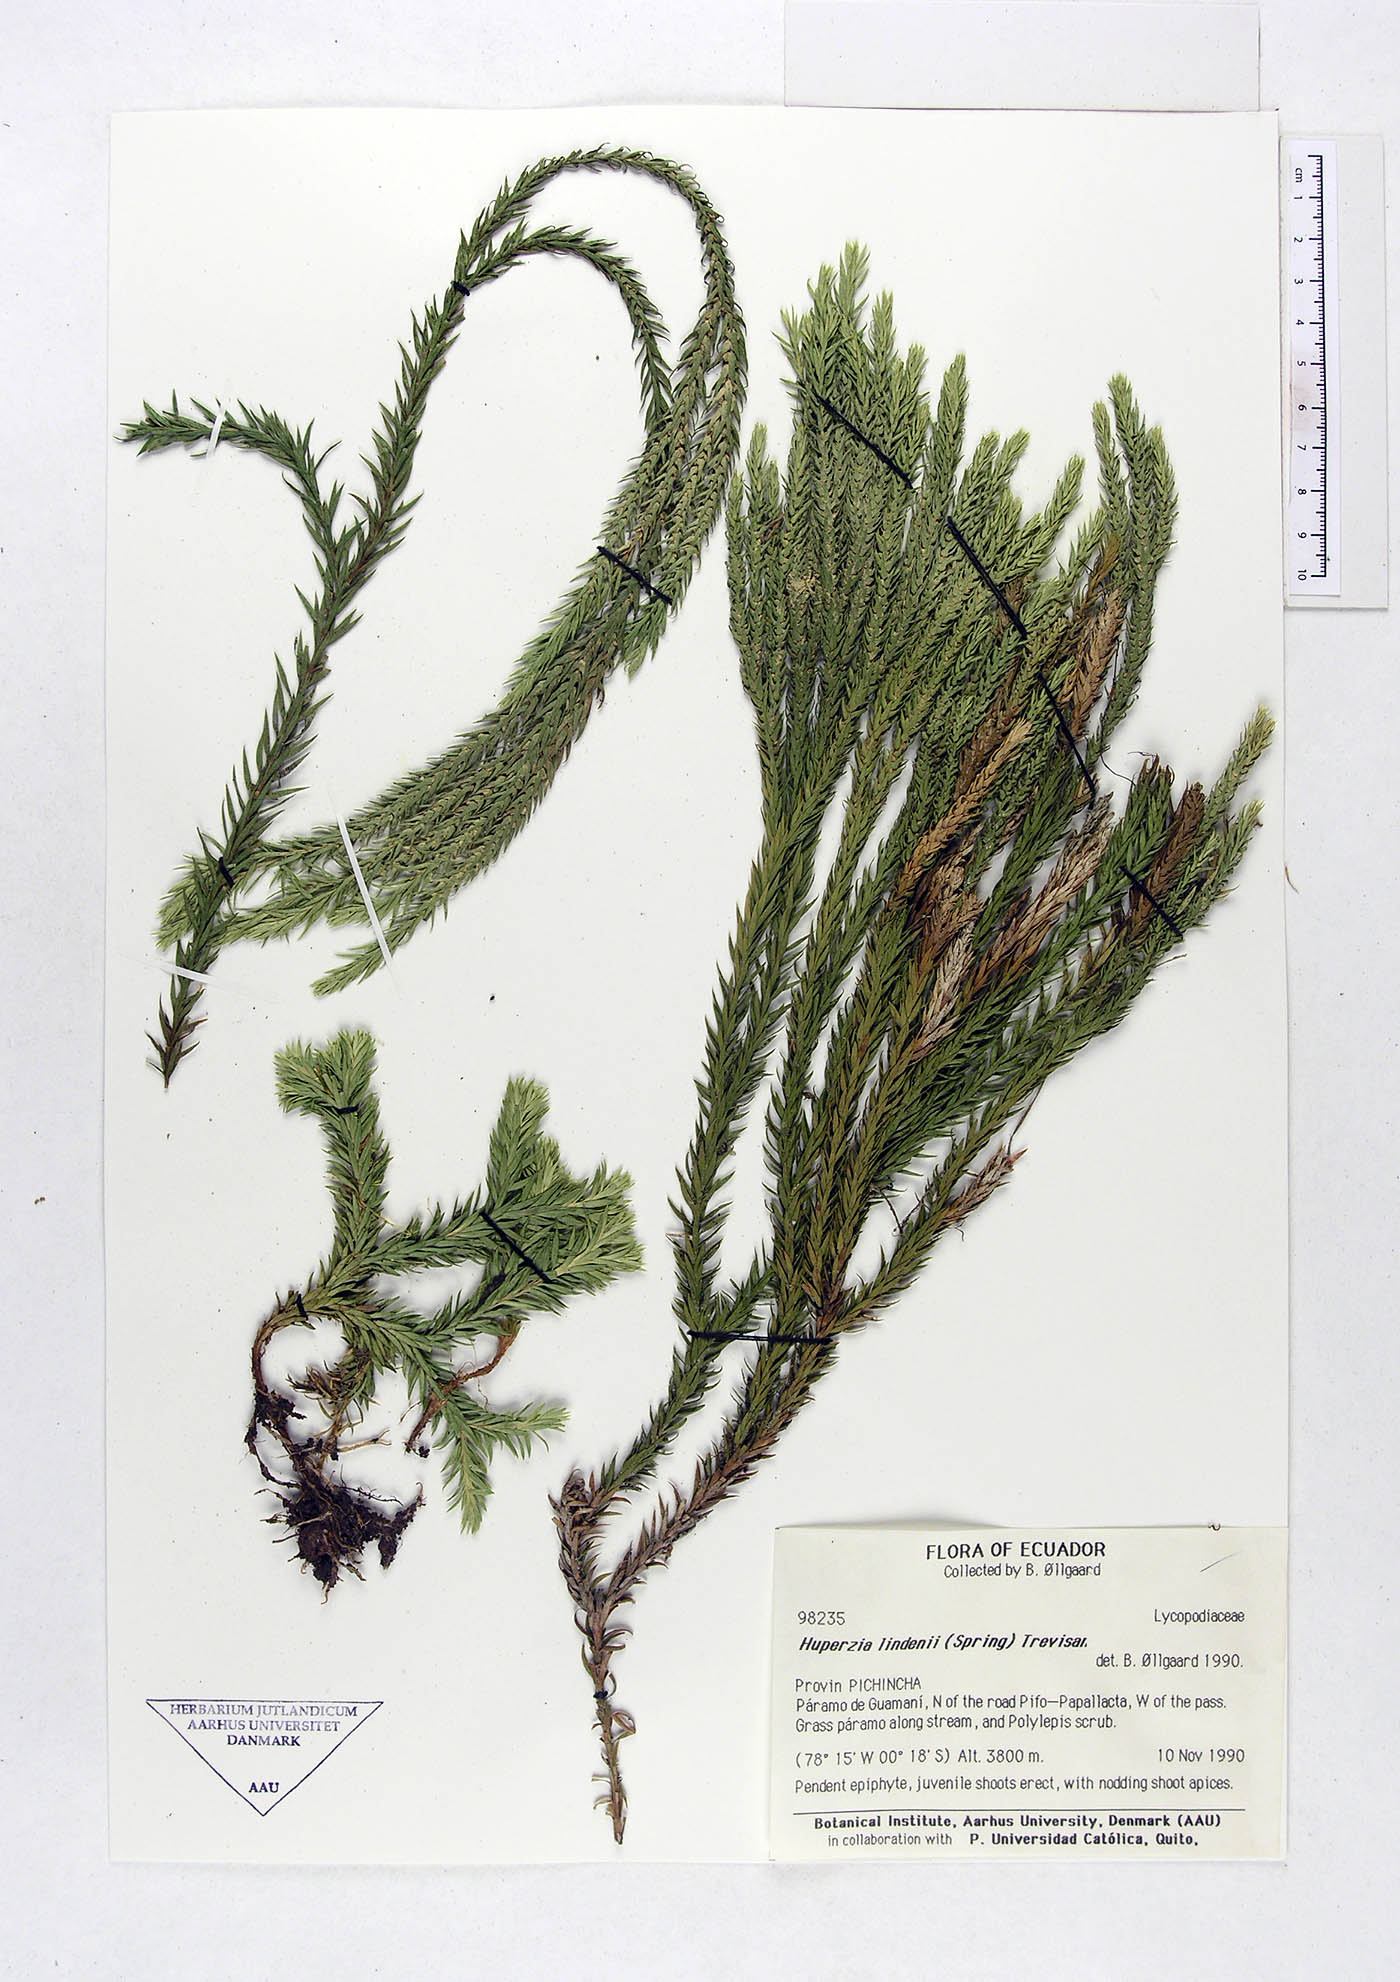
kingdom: Plantae
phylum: Tracheophyta
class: Lycopodiopsida
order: Lycopodiales
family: Lycopodiaceae
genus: Phlegmariurus
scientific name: Phlegmariurus lindenii
